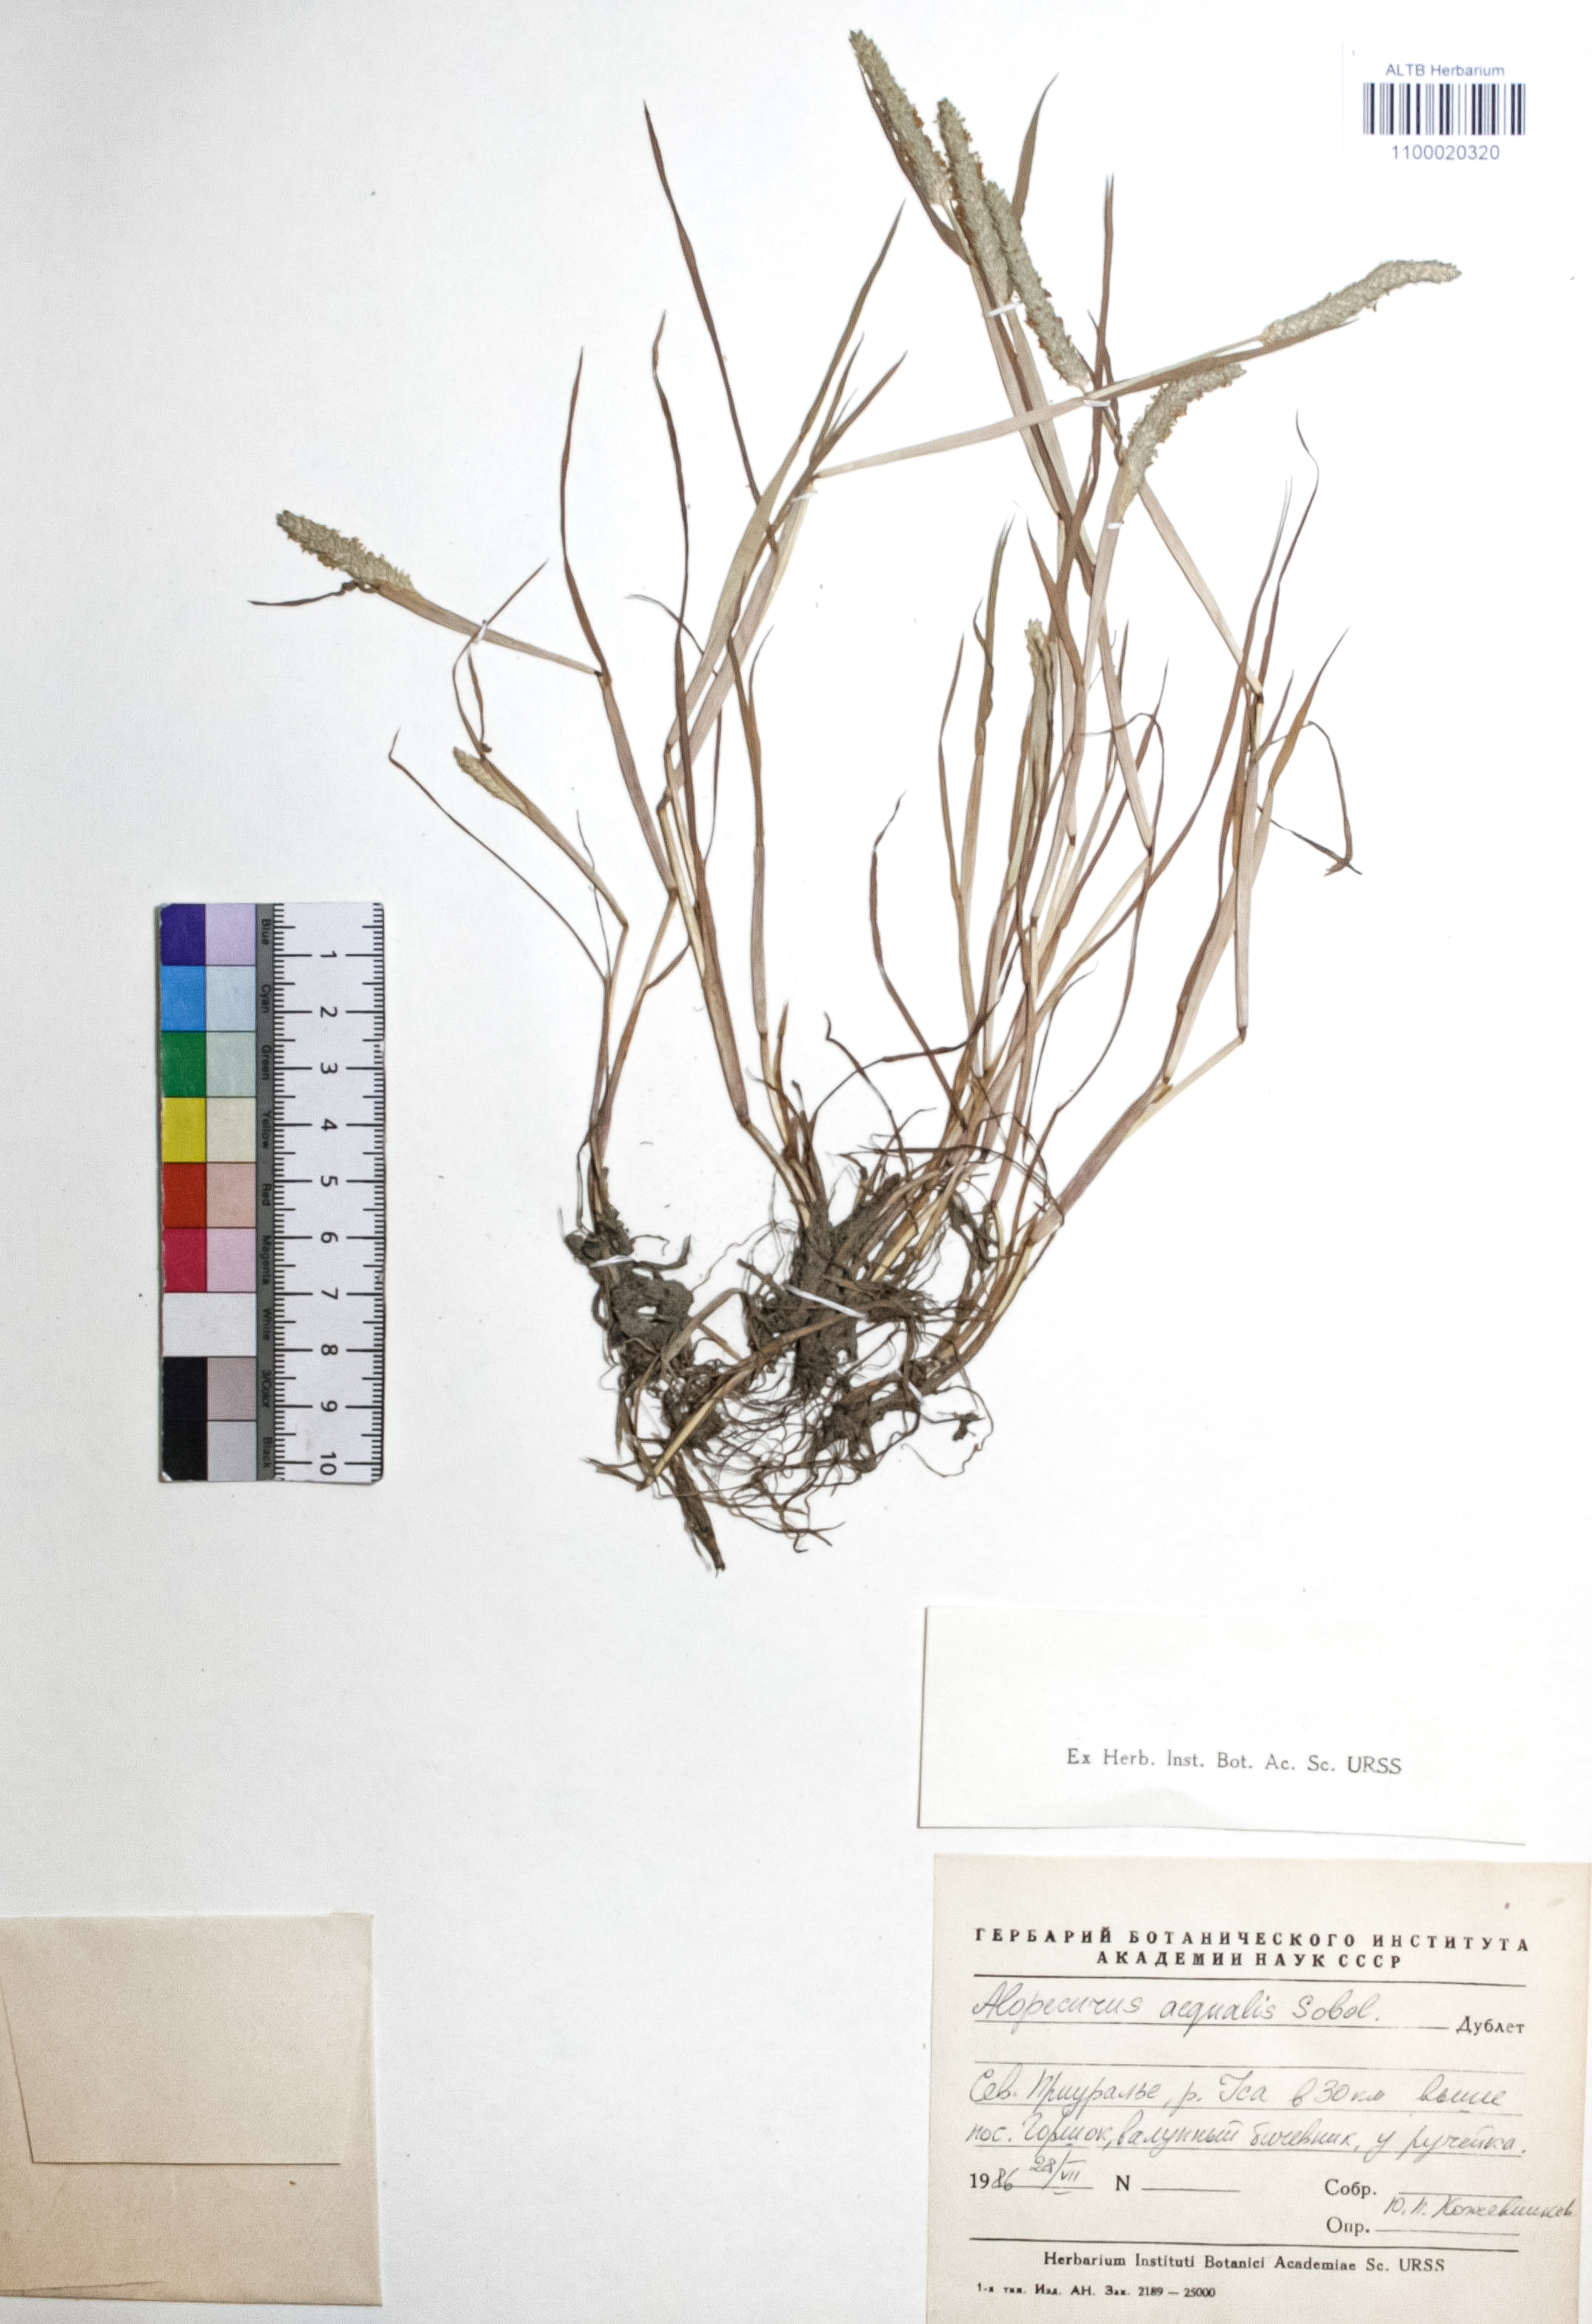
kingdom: Plantae
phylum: Tracheophyta
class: Liliopsida
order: Poales
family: Poaceae
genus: Alopecurus
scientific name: Alopecurus aequalis
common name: Orange foxtail
